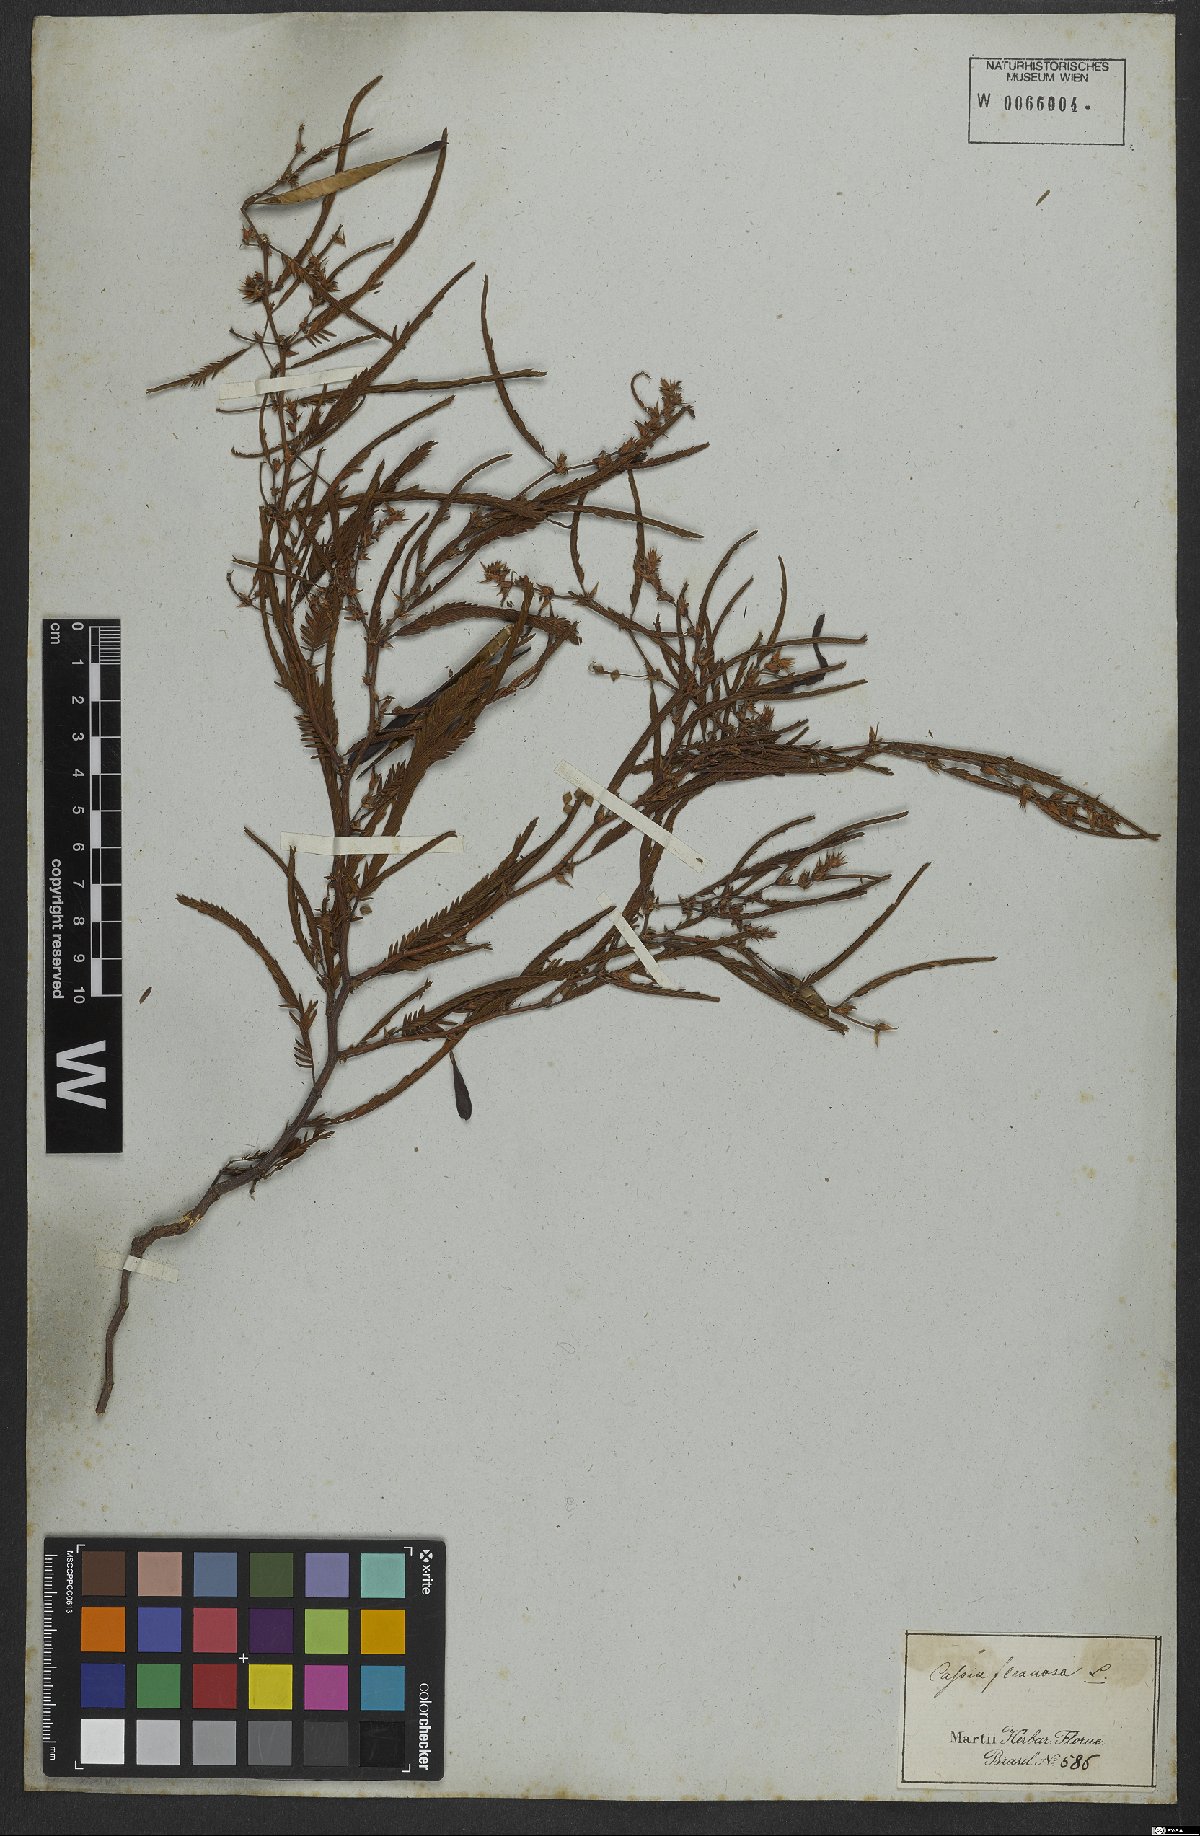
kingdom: Plantae
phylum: Tracheophyta
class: Magnoliopsida
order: Fabales
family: Fabaceae
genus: Chamaecrista
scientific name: Chamaecrista flexuosa
